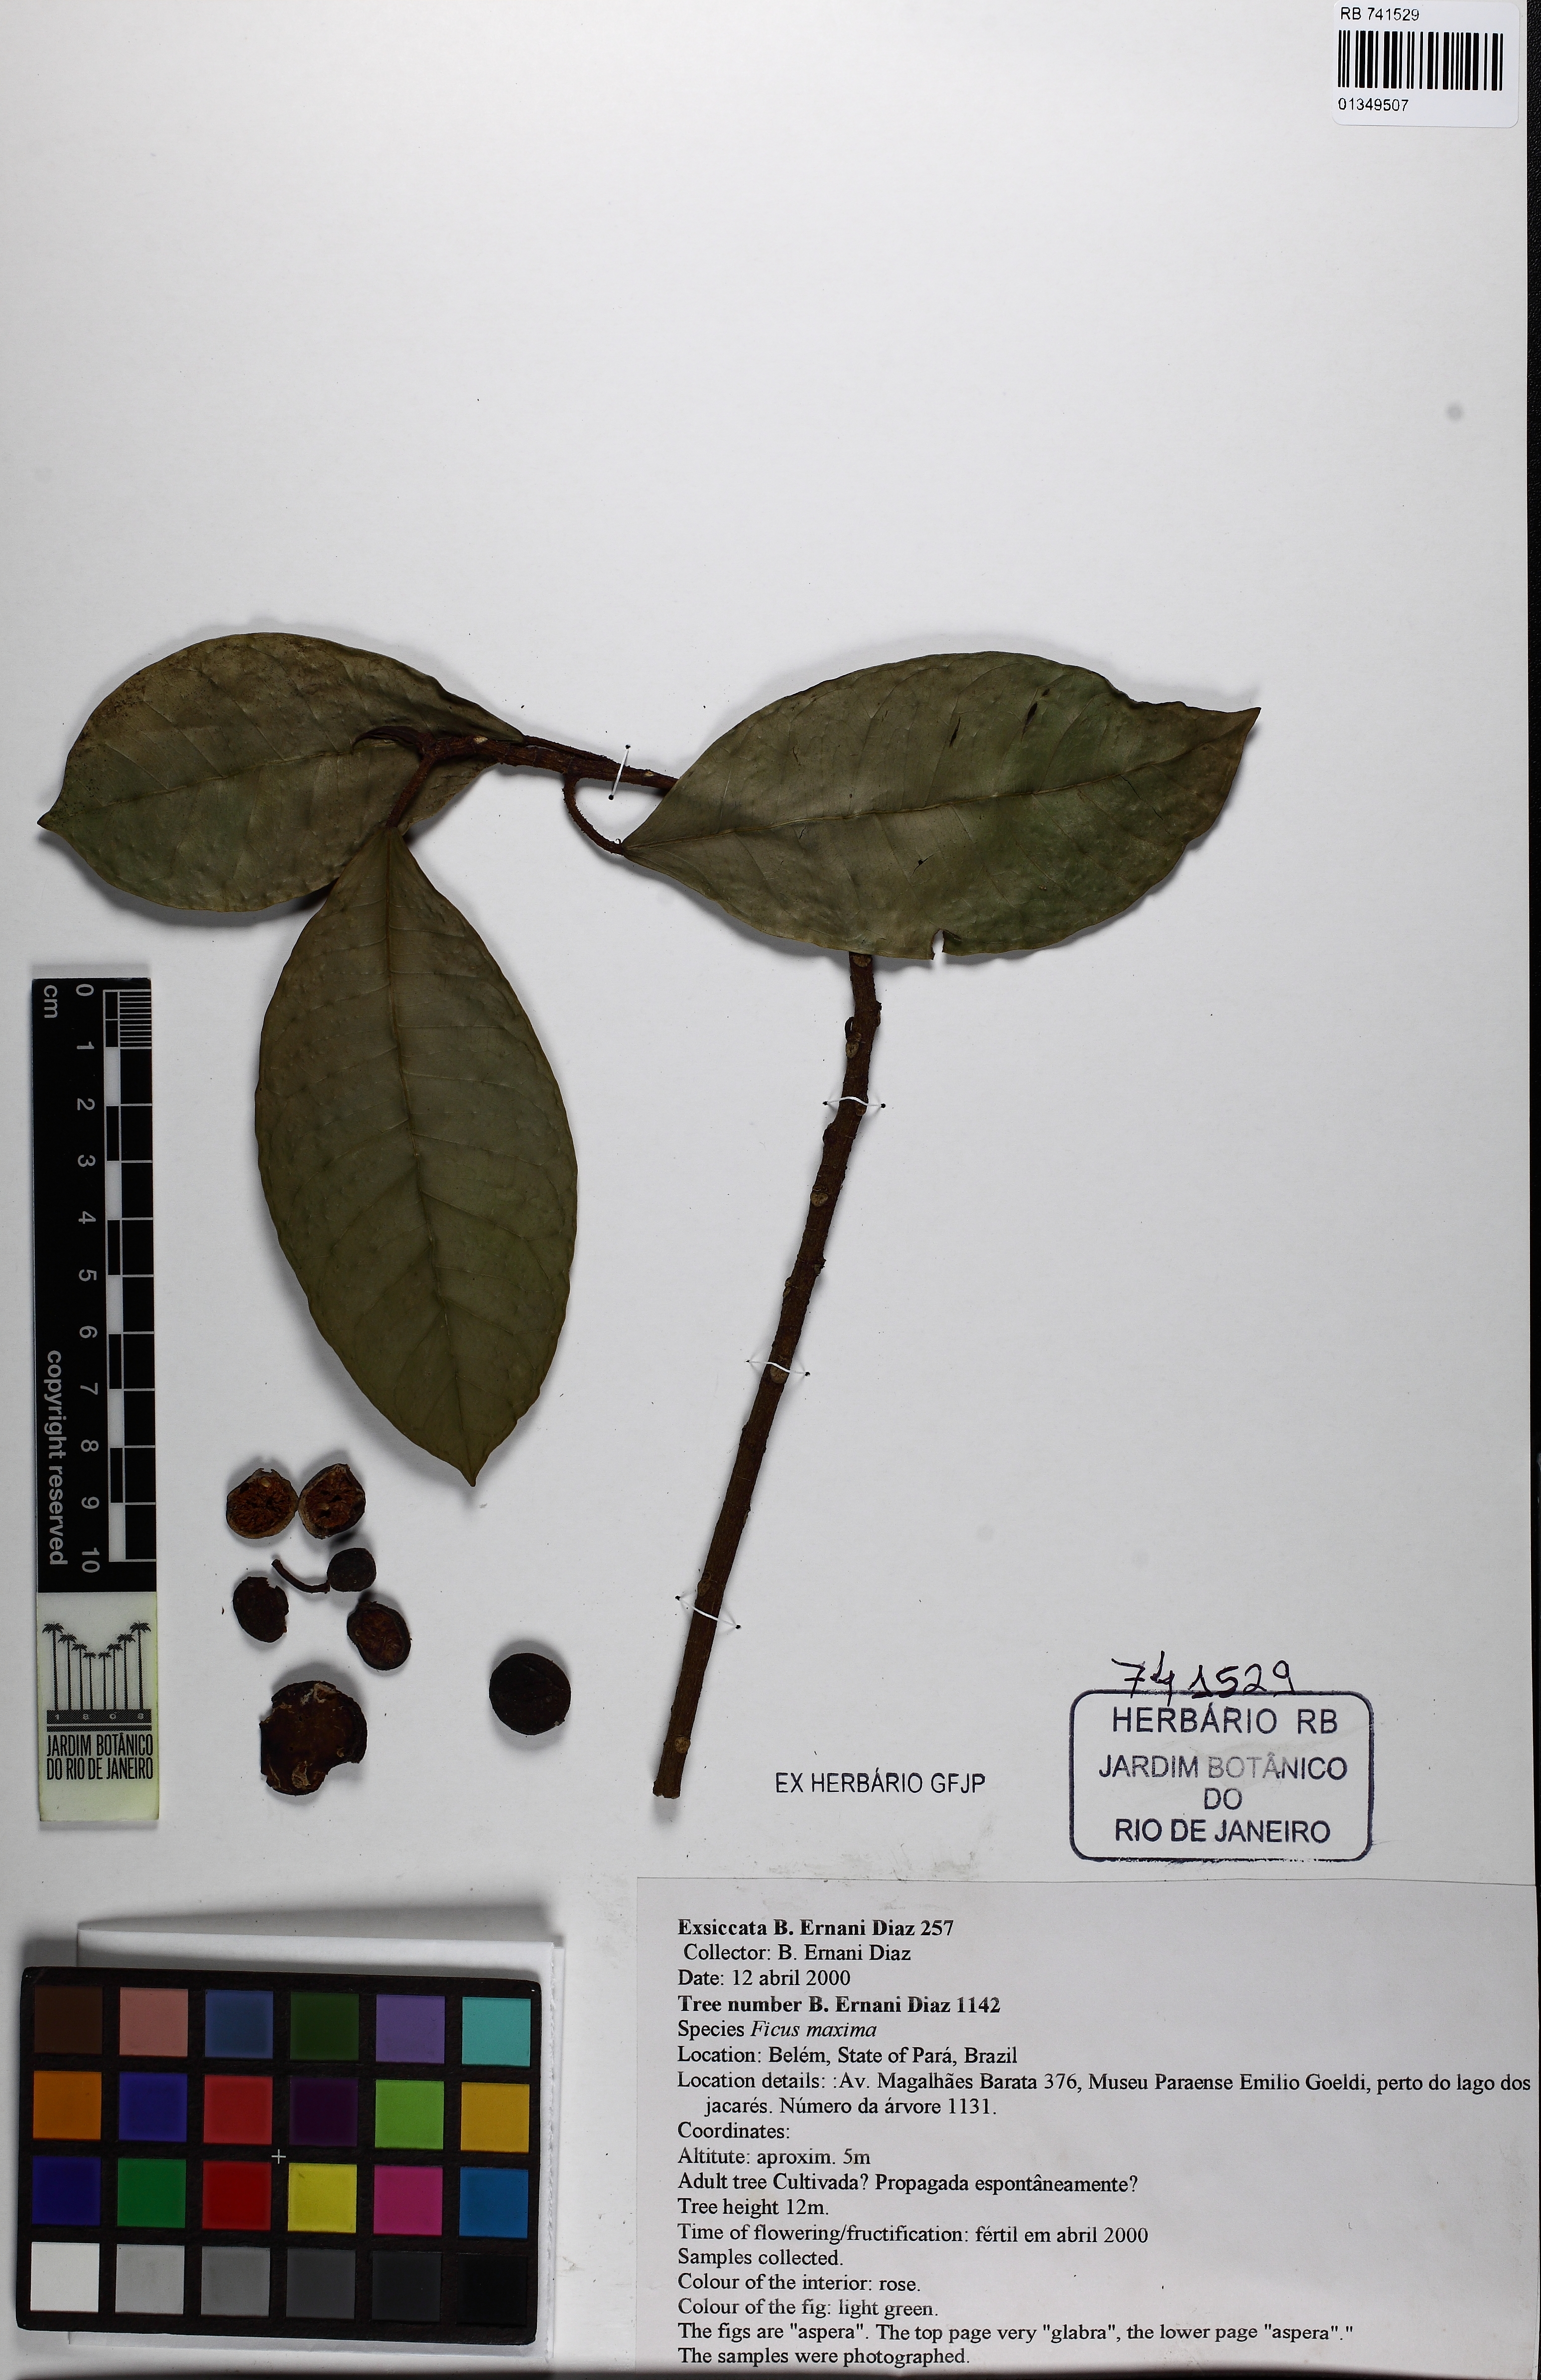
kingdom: Plantae
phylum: Tracheophyta
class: Magnoliopsida
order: Rosales
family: Moraceae
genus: Ficus
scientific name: Ficus maxima
